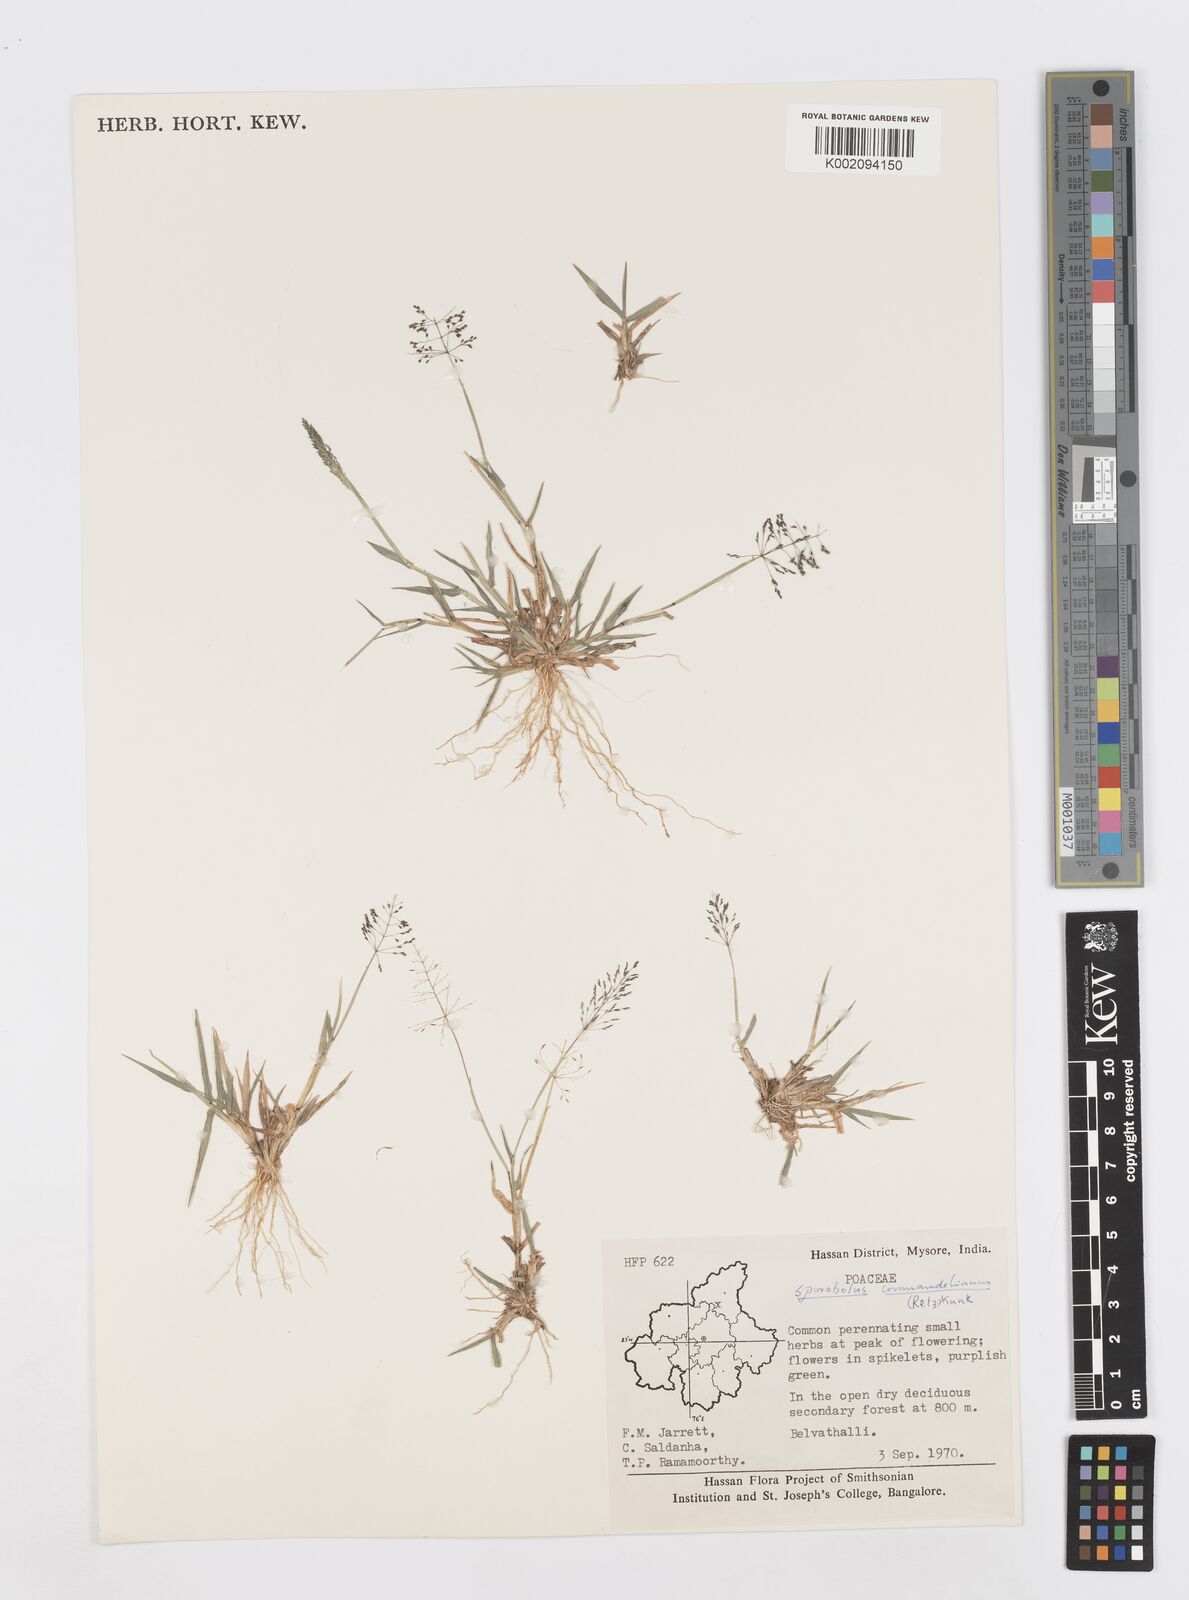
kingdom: Plantae
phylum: Tracheophyta
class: Liliopsida
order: Poales
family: Poaceae
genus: Sporobolus
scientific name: Sporobolus coromandelianus
